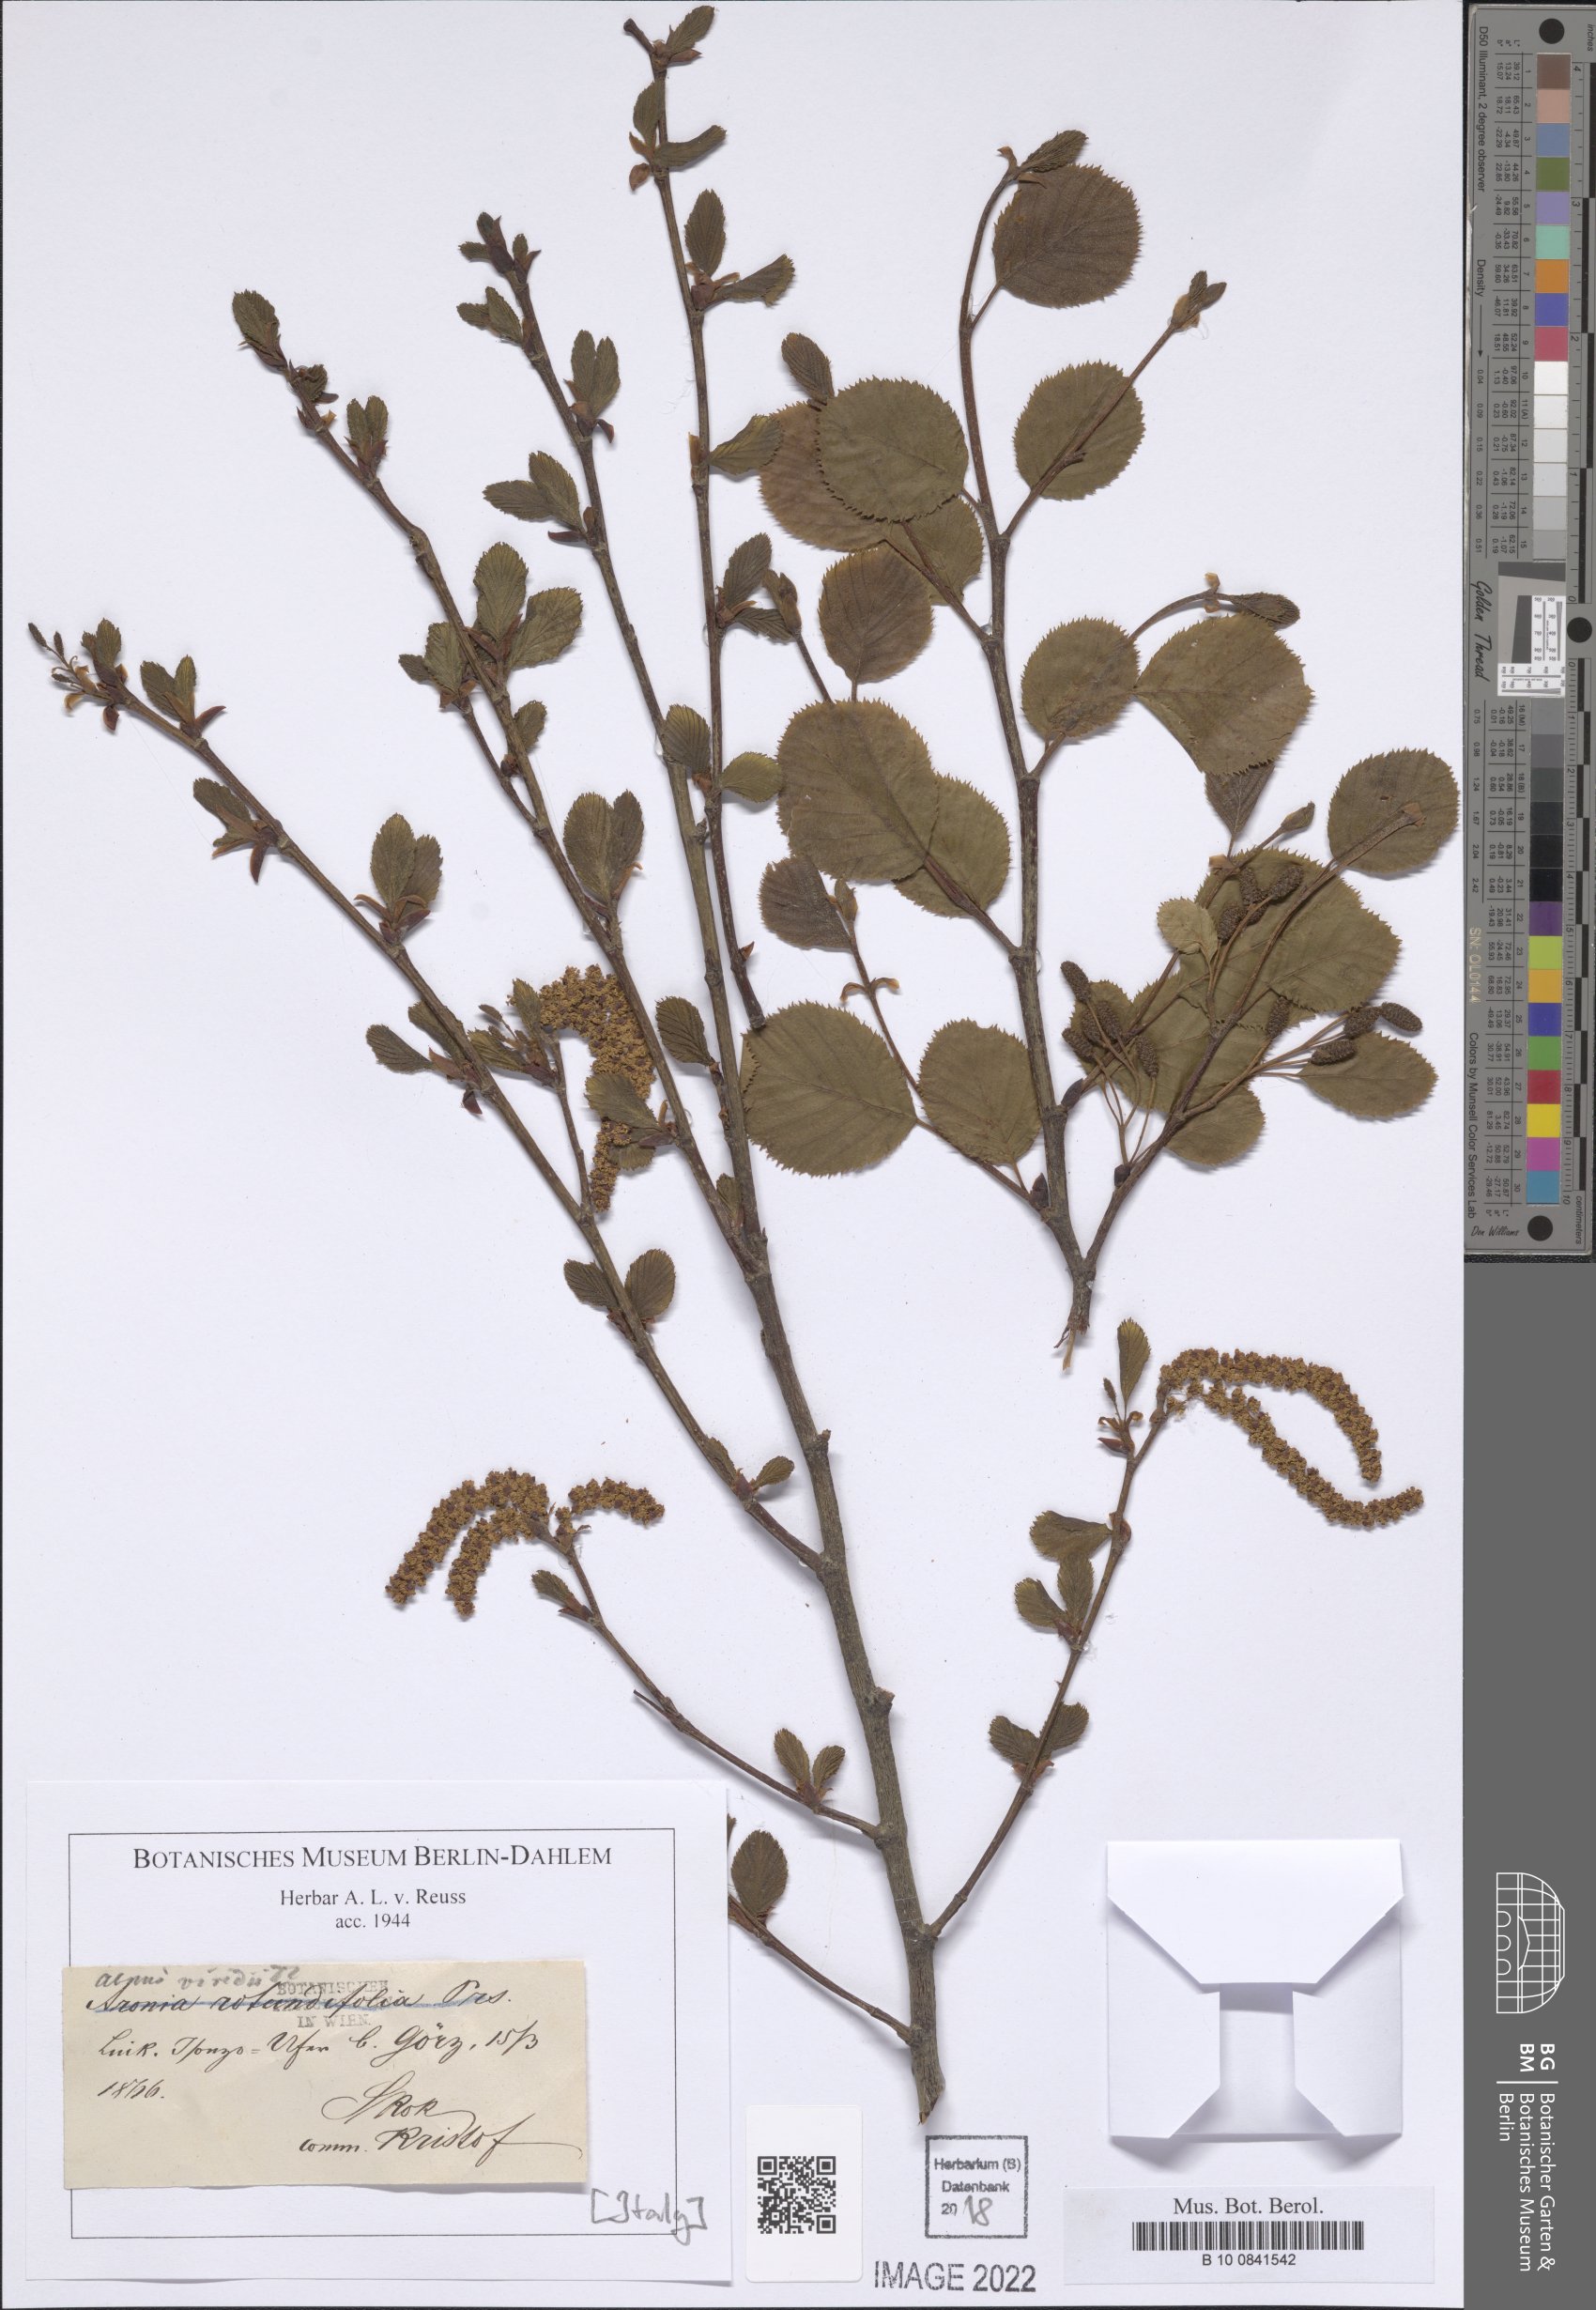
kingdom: Plantae
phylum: Tracheophyta
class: Magnoliopsida
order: Fagales
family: Betulaceae
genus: Alnus
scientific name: Alnus alnobetula
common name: Green alder
